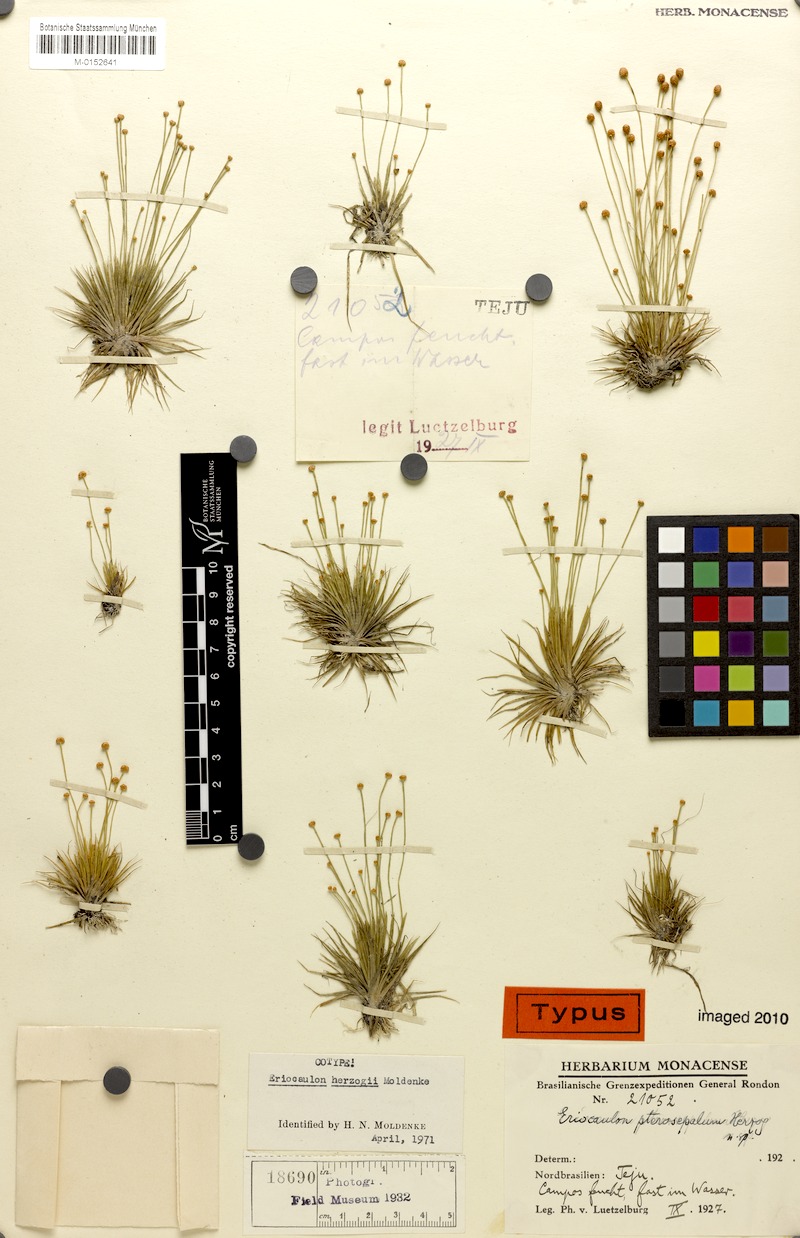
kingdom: Plantae
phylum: Tracheophyta
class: Liliopsida
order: Poales
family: Eriocaulaceae
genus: Eriocaulon
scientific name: Eriocaulon herzogii
